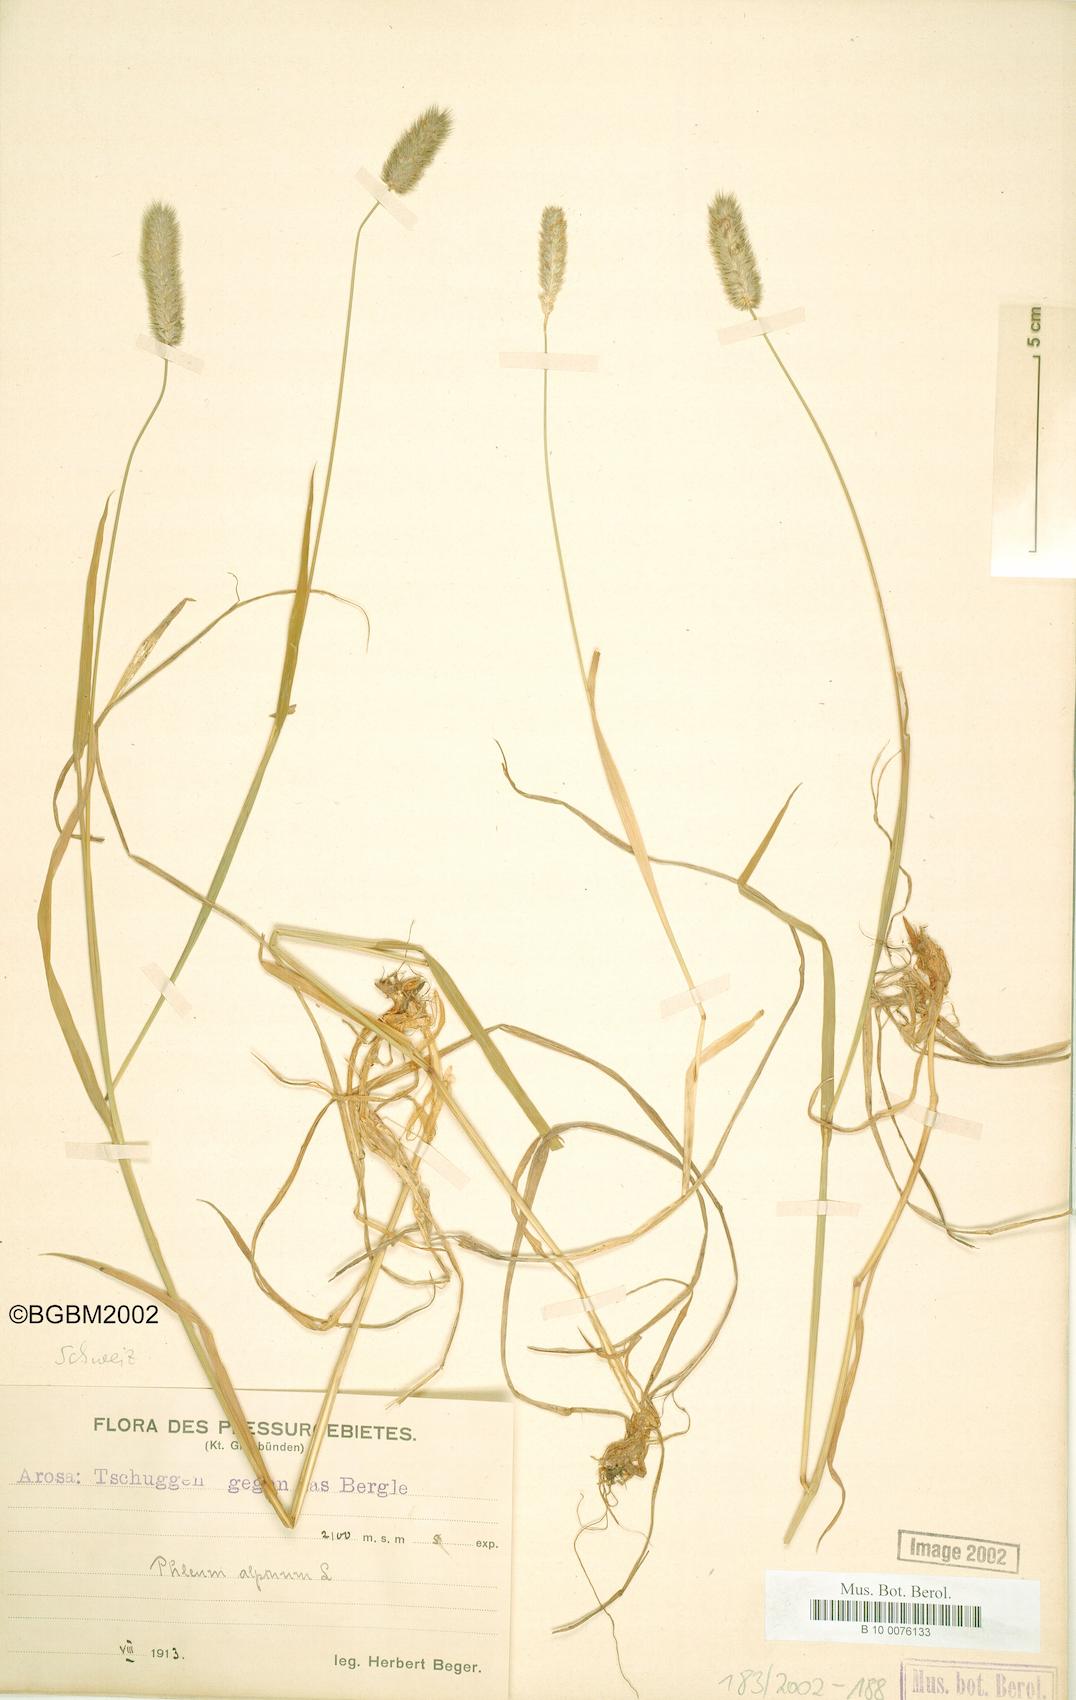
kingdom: Plantae
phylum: Tracheophyta
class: Liliopsida
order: Poales
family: Poaceae
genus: Phleum
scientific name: Phleum alpinum
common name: Alpine cat's-tail
